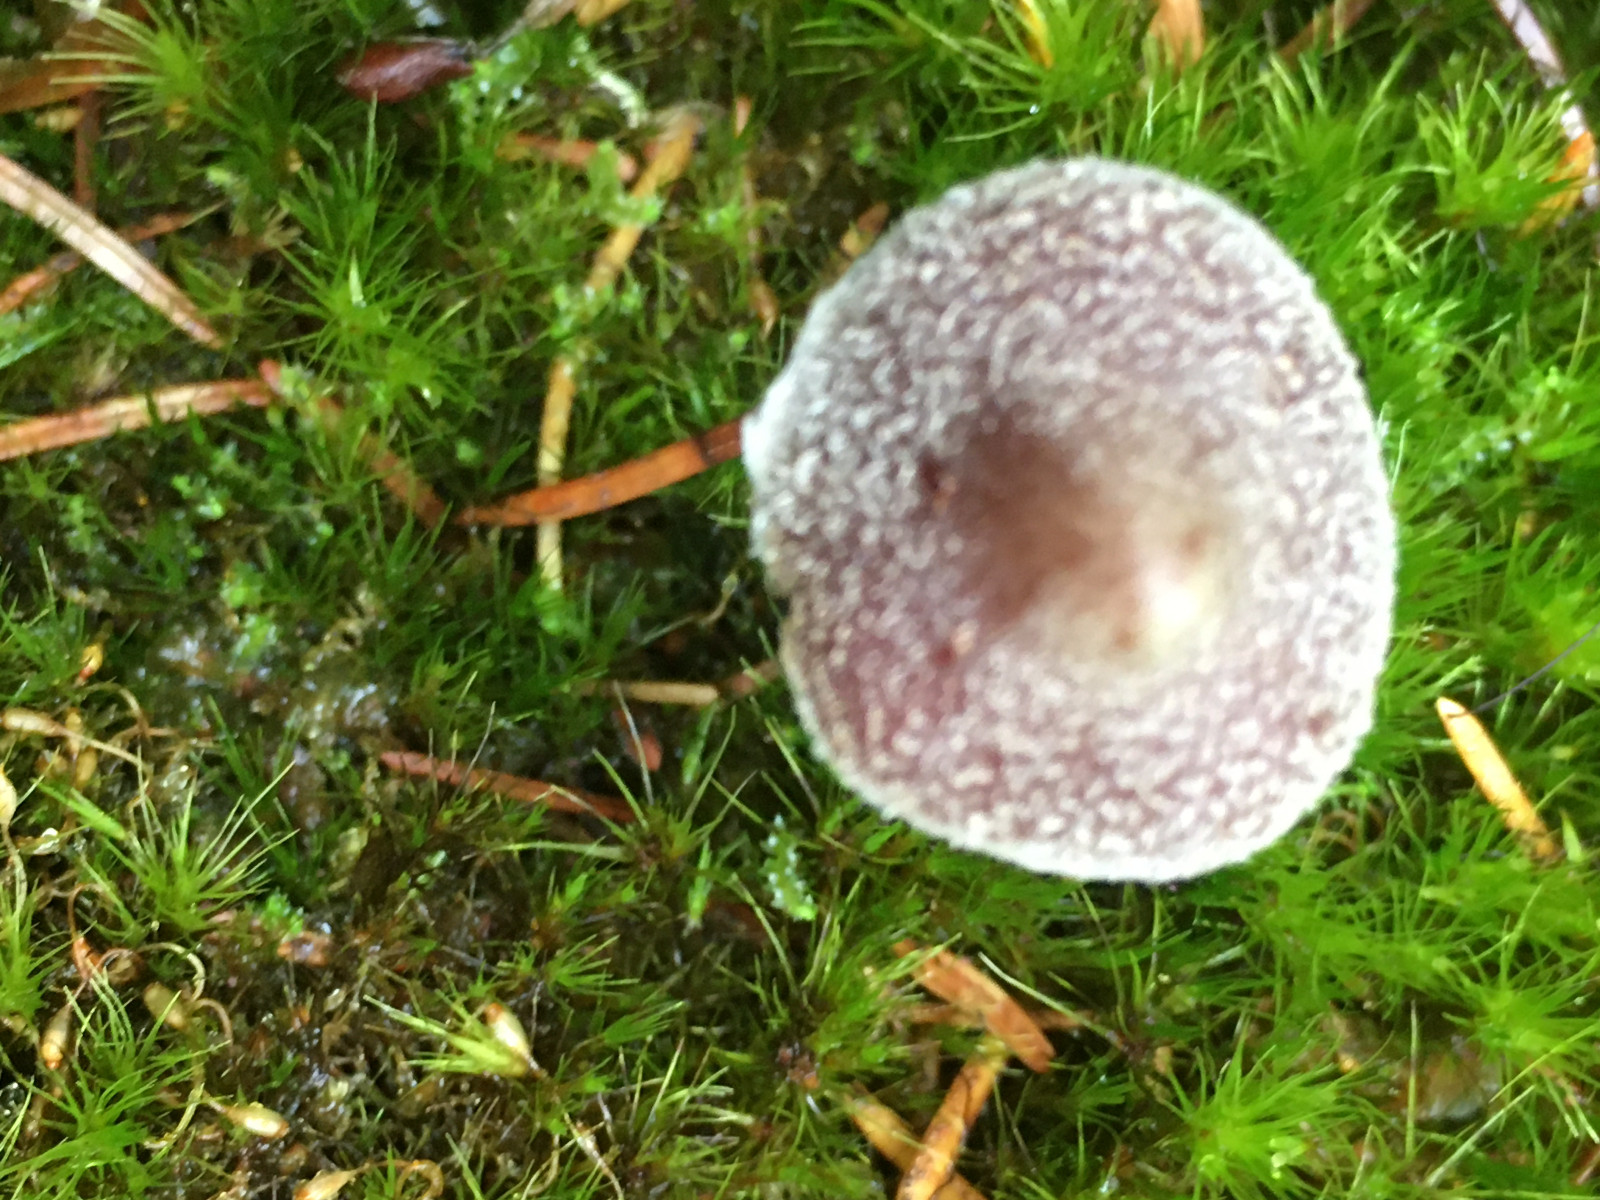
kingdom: Fungi
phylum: Basidiomycota
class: Agaricomycetes
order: Agaricales
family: Cortinariaceae
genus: Cortinarius
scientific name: Cortinarius
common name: pelargonie-slørhat
